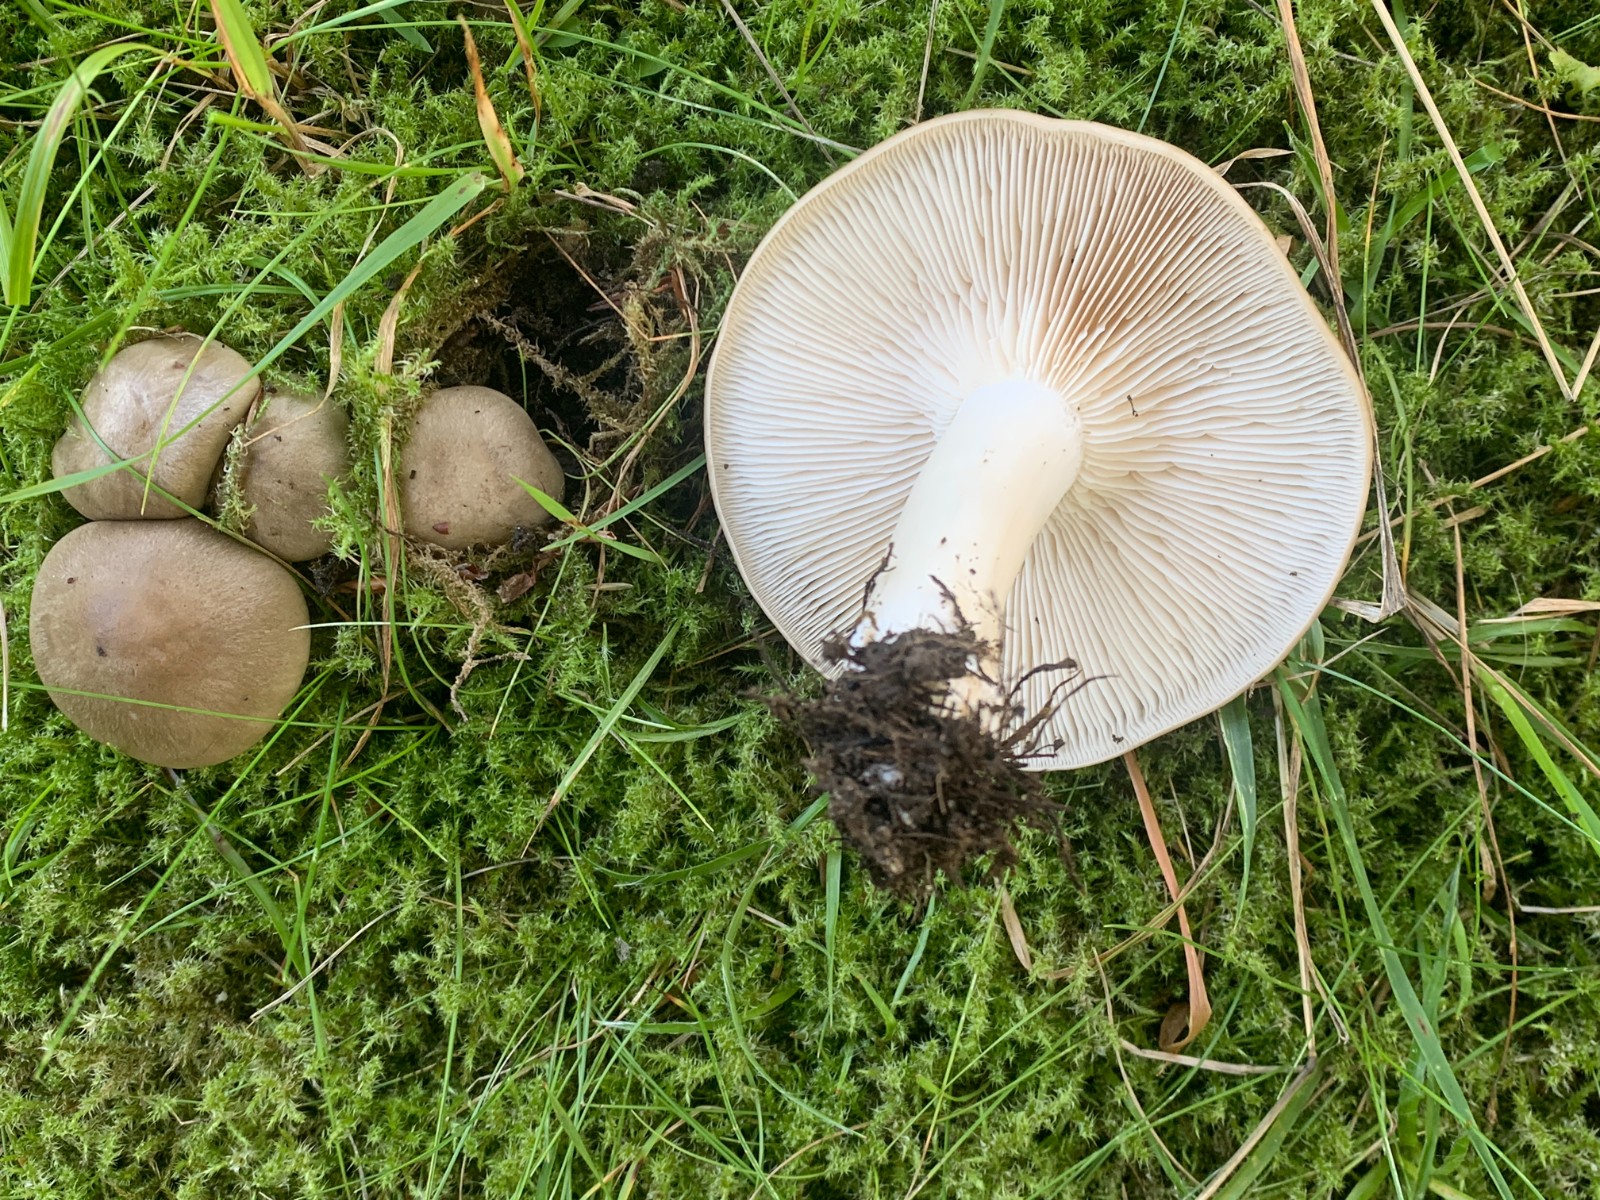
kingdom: Fungi
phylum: Basidiomycota
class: Agaricomycetes
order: Agaricales
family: Lyophyllaceae
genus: Lyophyllum
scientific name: Lyophyllum decastes
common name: røggrå gråblad
